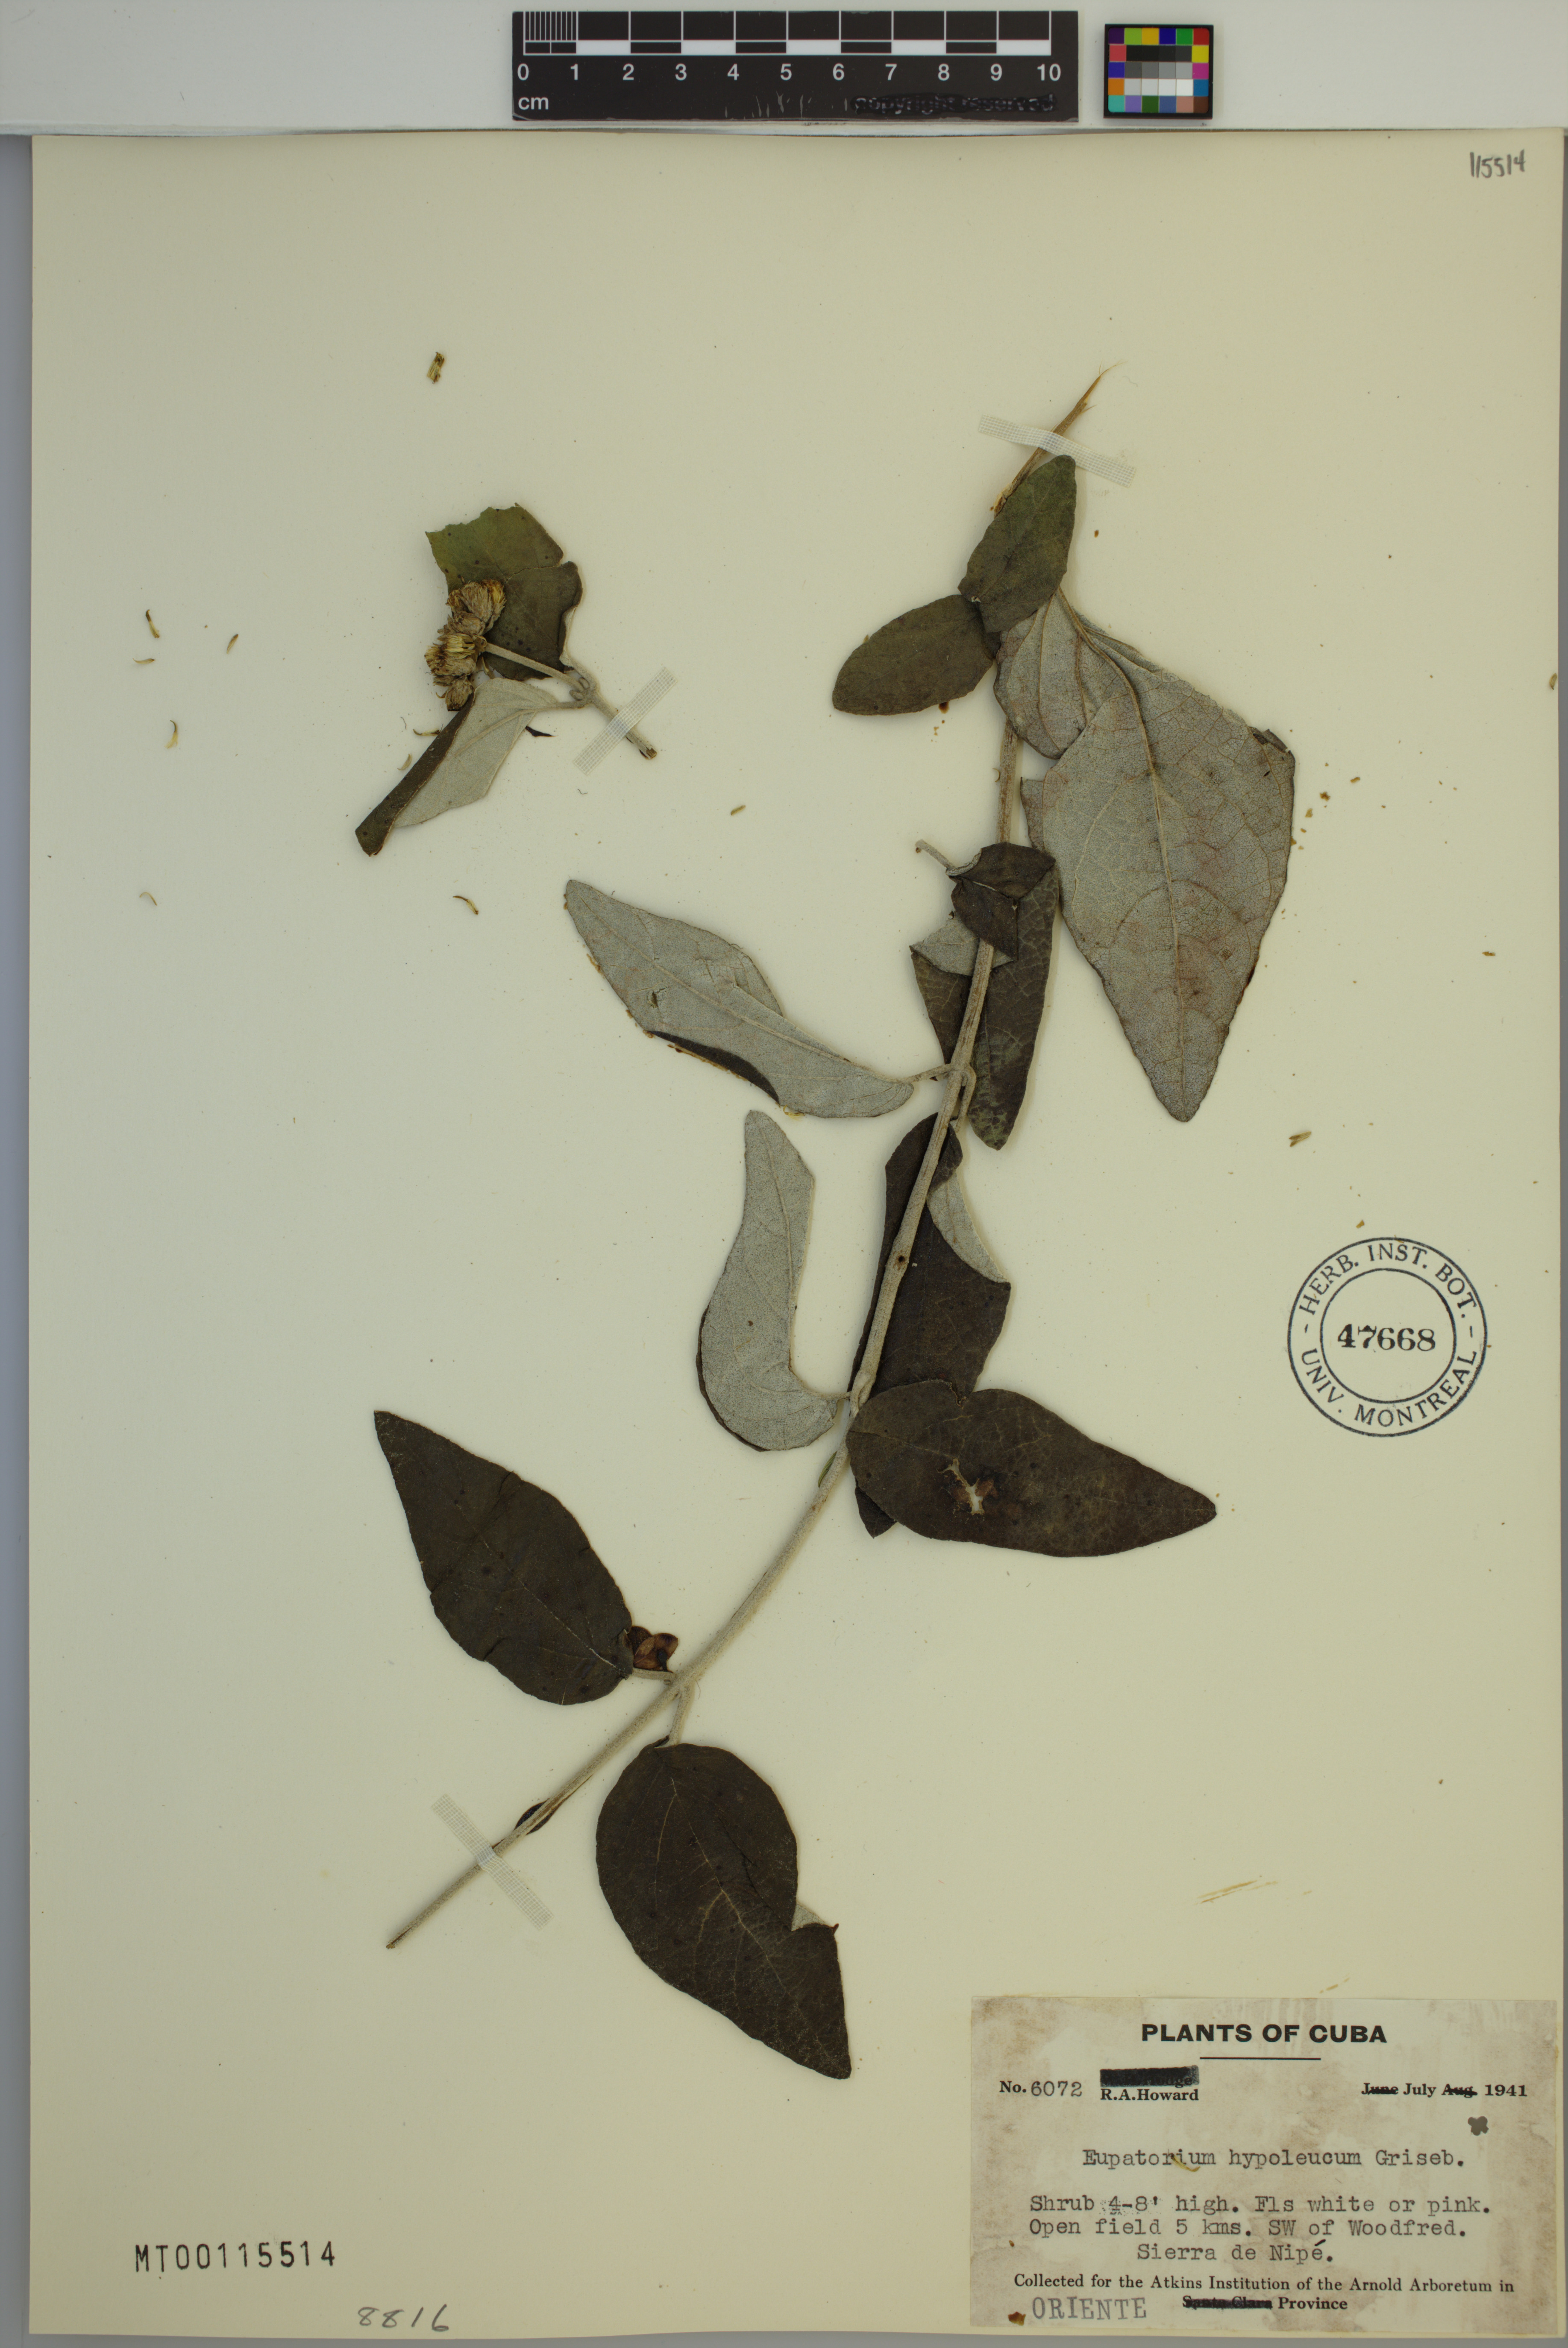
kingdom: Plantae
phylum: Tracheophyta
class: Magnoliopsida
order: Asterales
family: Asteraceae
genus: Grisebachianthus
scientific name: Grisebachianthus hypoleucus
